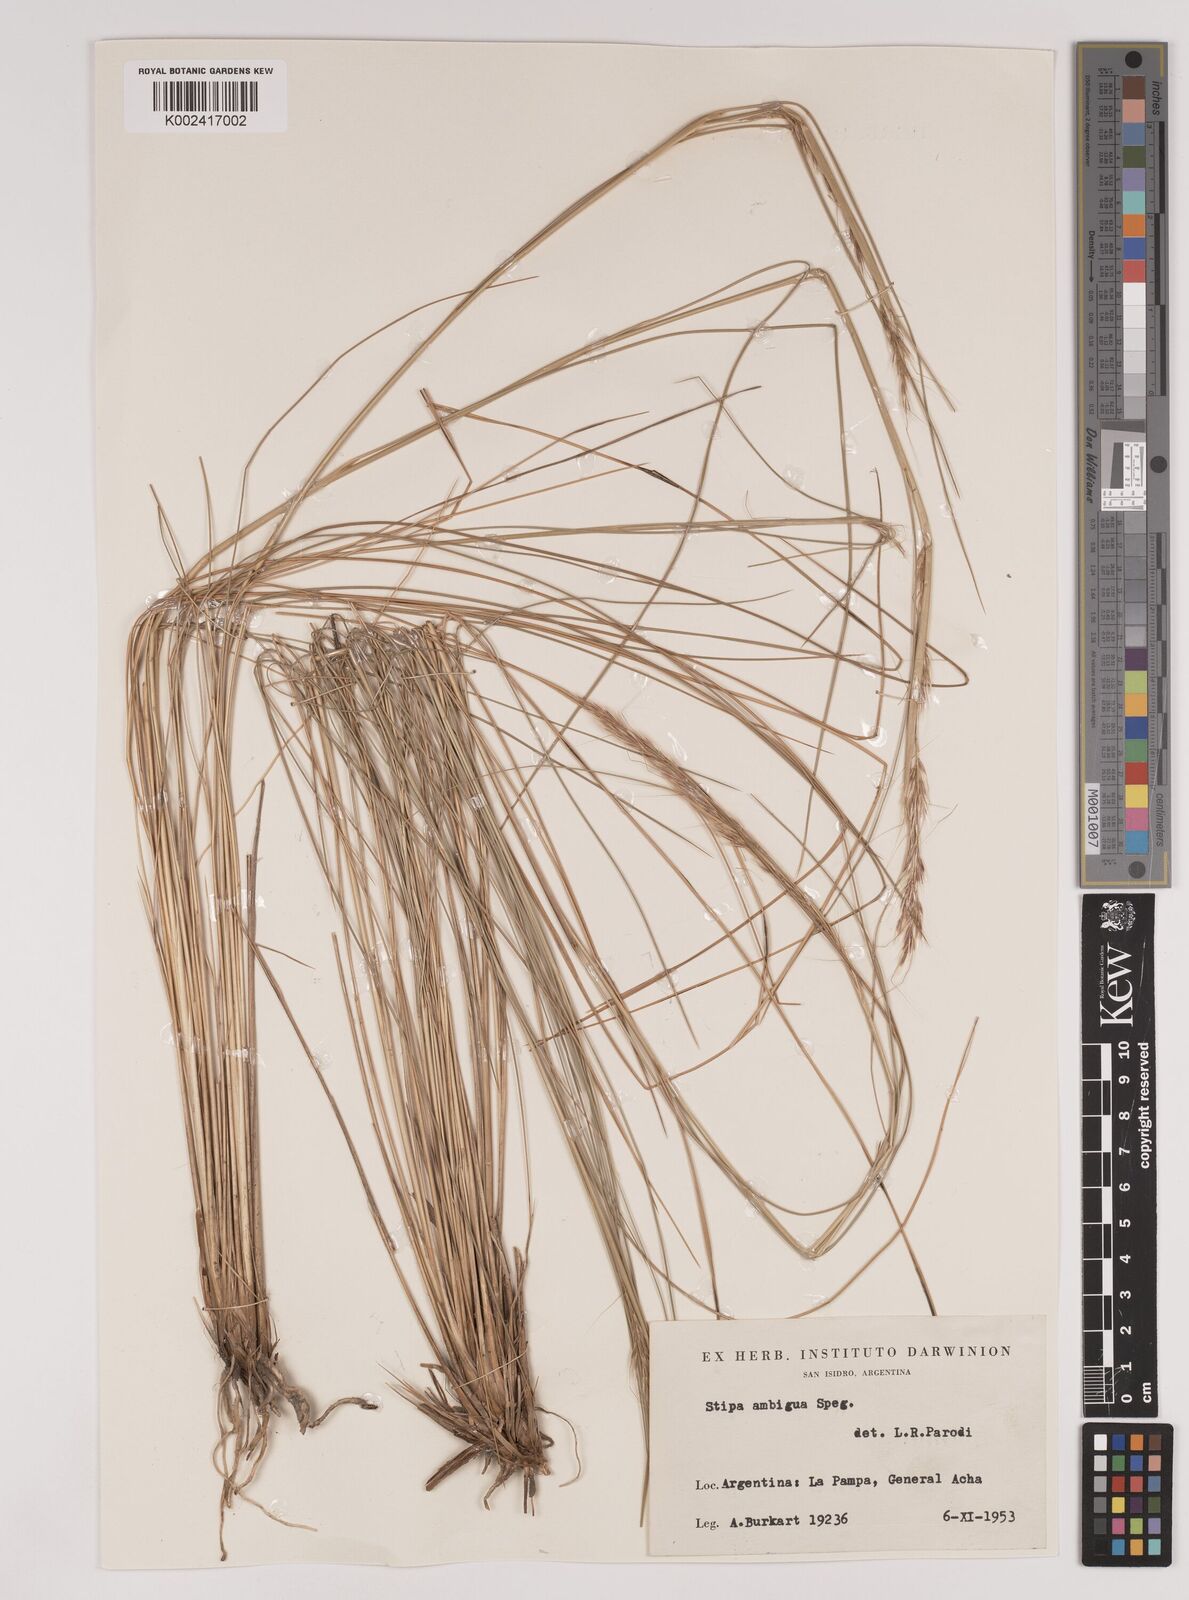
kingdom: Plantae
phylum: Tracheophyta
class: Liliopsida
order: Poales
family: Poaceae
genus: Amelichloa
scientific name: Amelichloa ambigua
